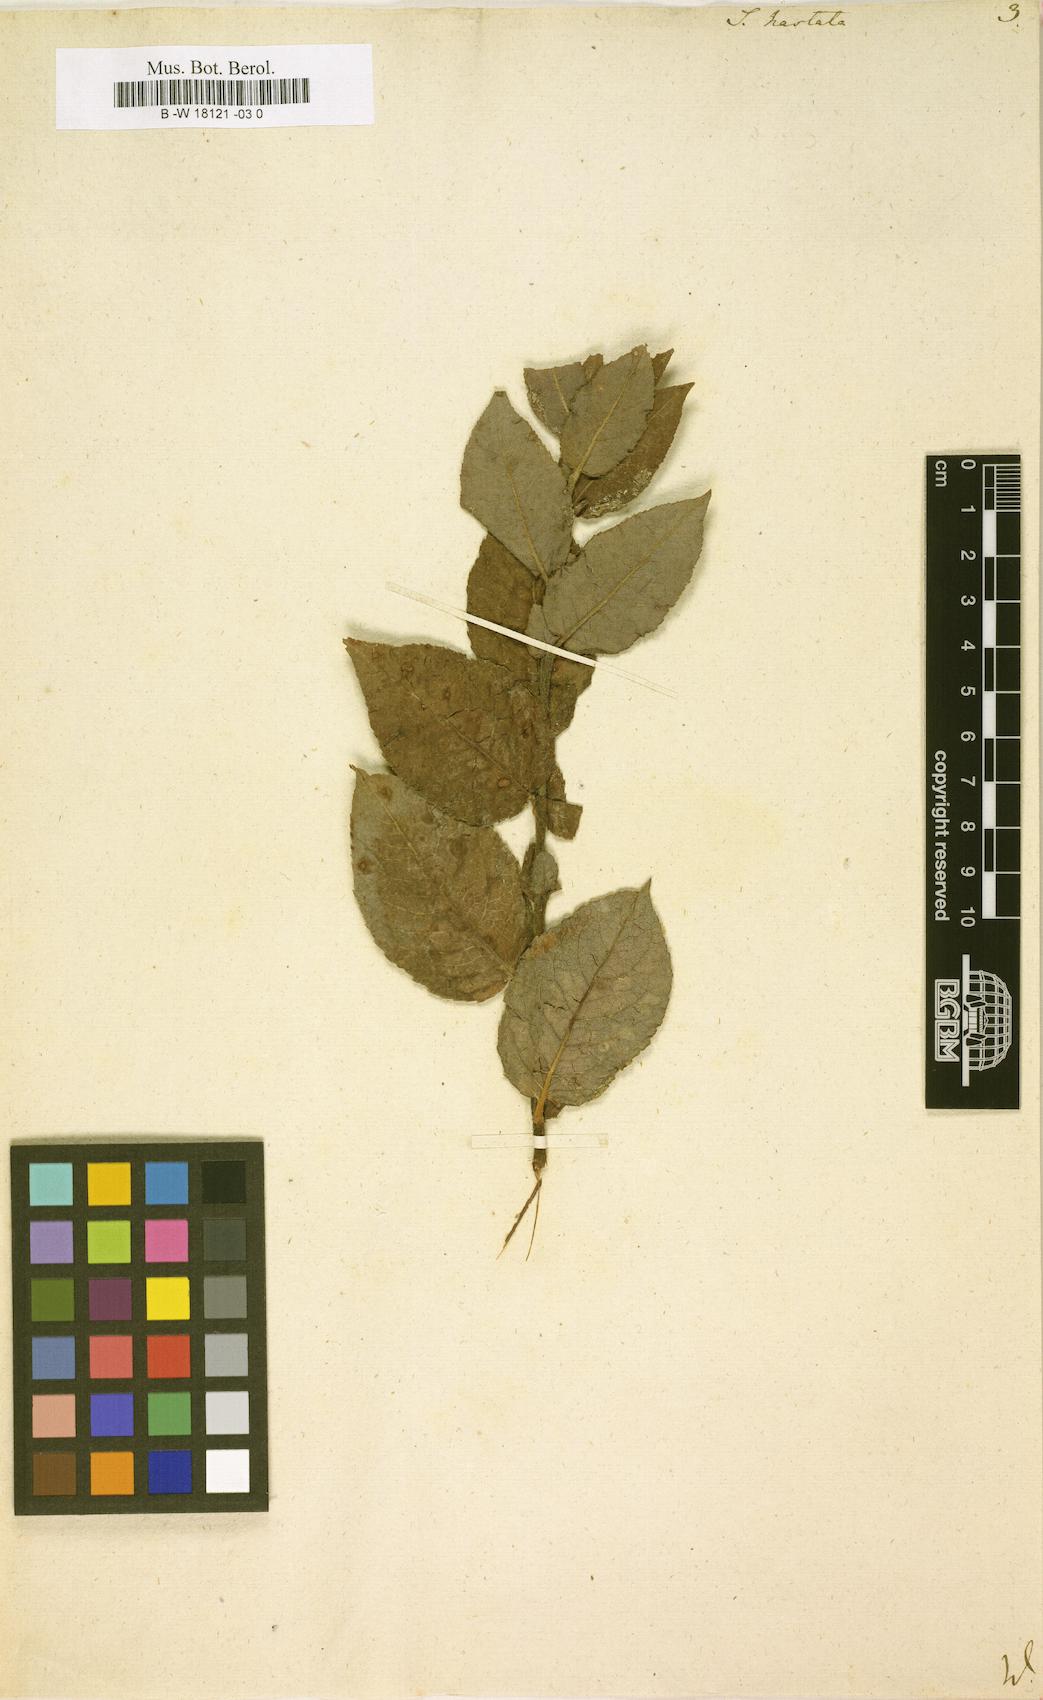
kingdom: Plantae
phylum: Tracheophyta
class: Magnoliopsida
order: Malpighiales
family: Salicaceae
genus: Salix
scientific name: Salix hastata
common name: Halberd willow
